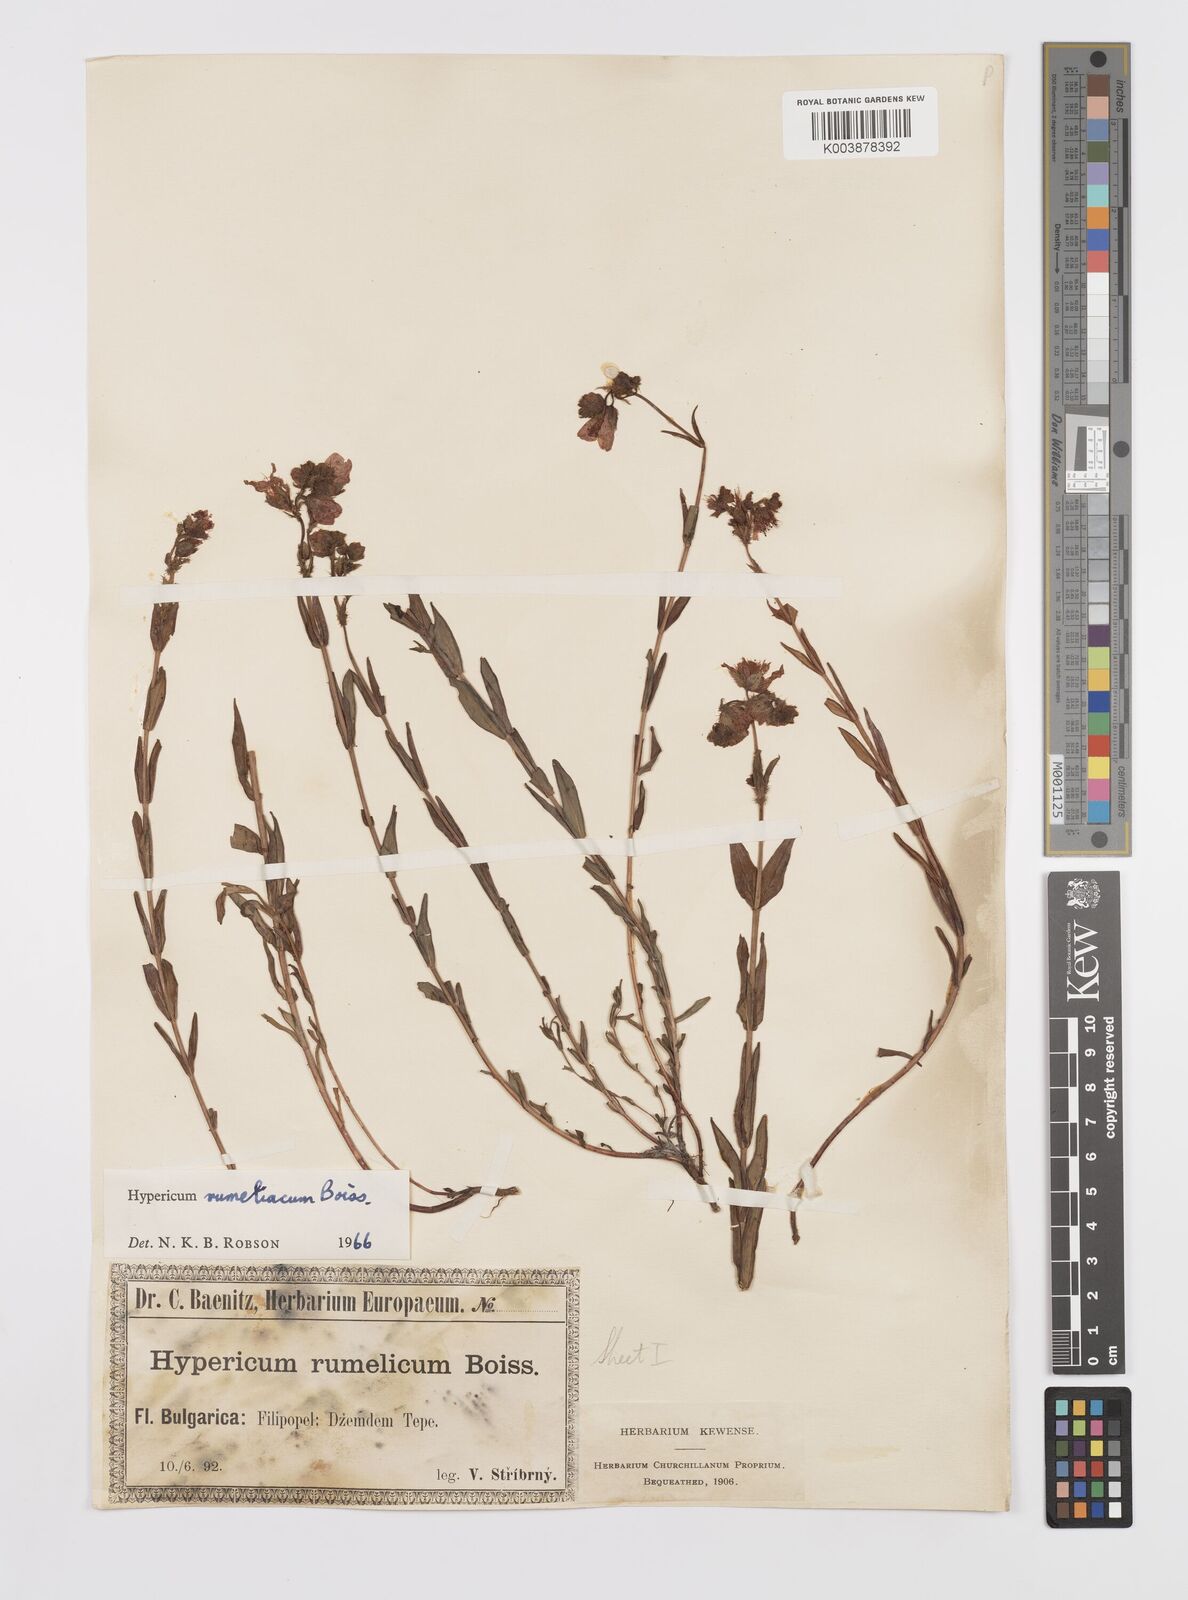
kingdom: Plantae
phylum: Tracheophyta
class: Magnoliopsida
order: Malpighiales
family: Hypericaceae
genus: Hypericum
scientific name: Hypericum rumeliacum
